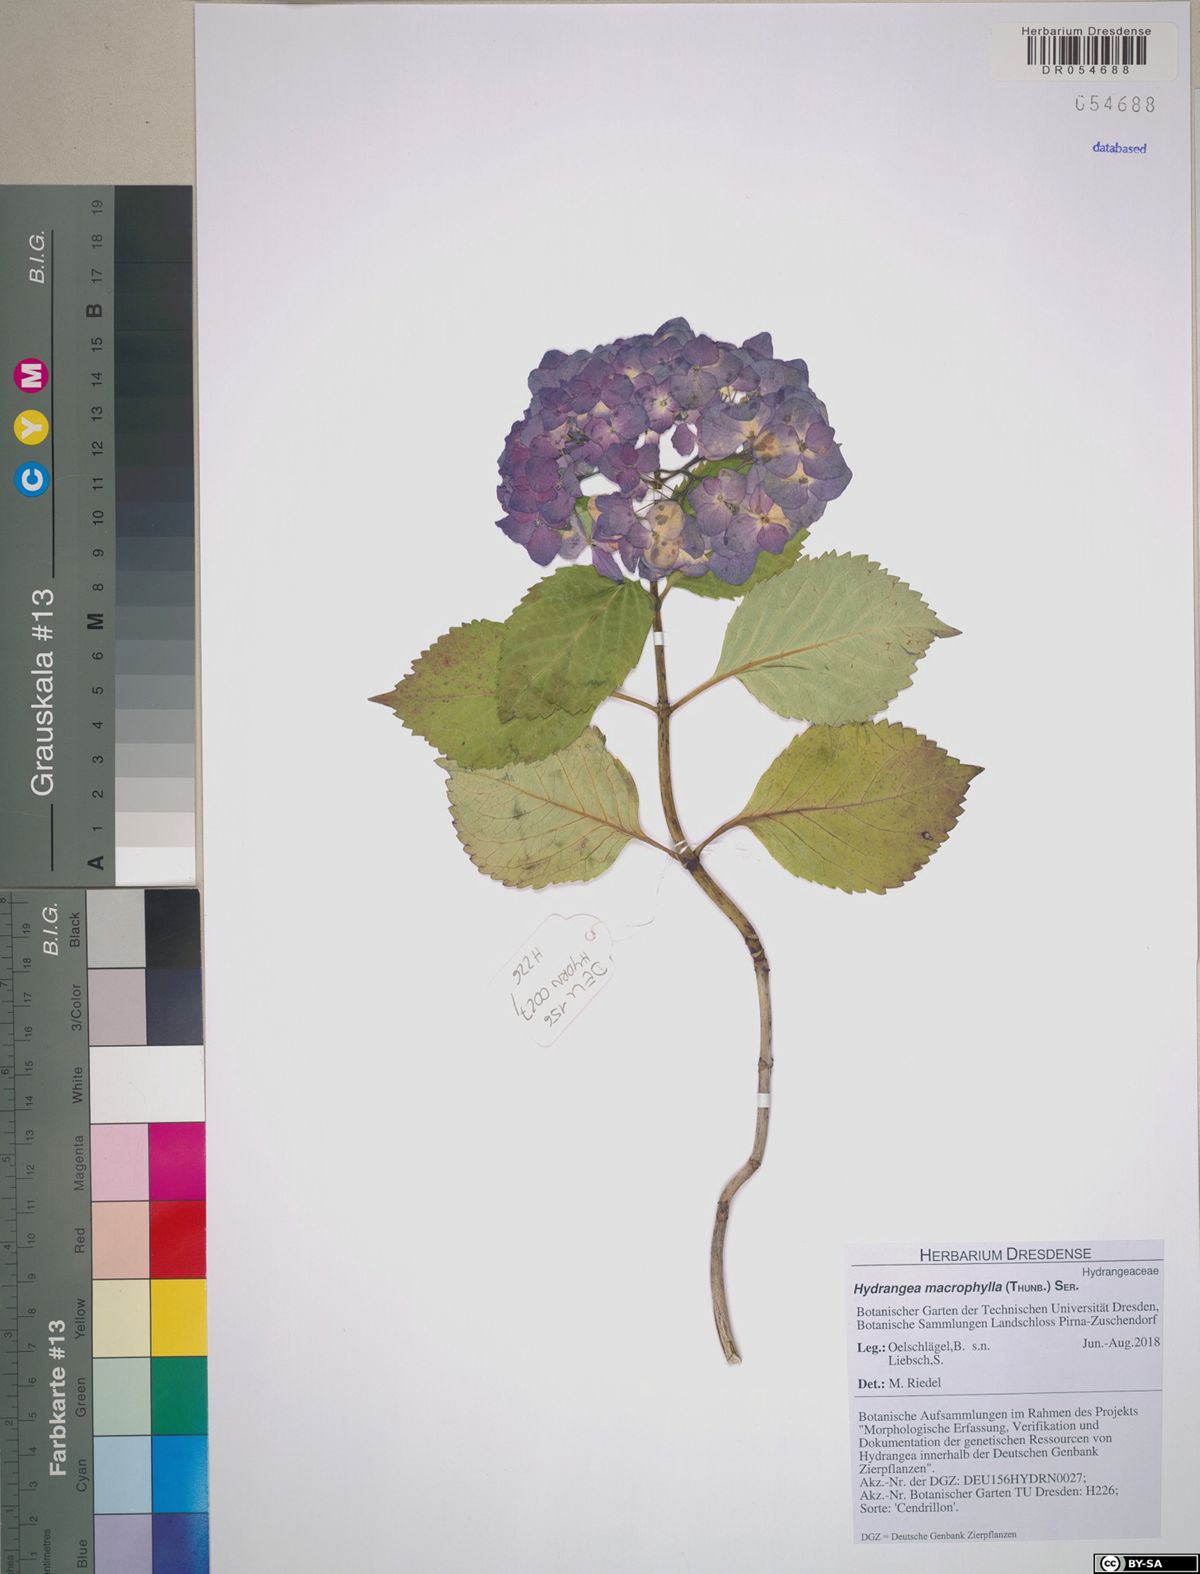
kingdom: Plantae
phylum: Tracheophyta
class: Magnoliopsida
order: Cornales
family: Hydrangeaceae
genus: Hydrangea
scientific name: Hydrangea macrophylla
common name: Hydrangea
